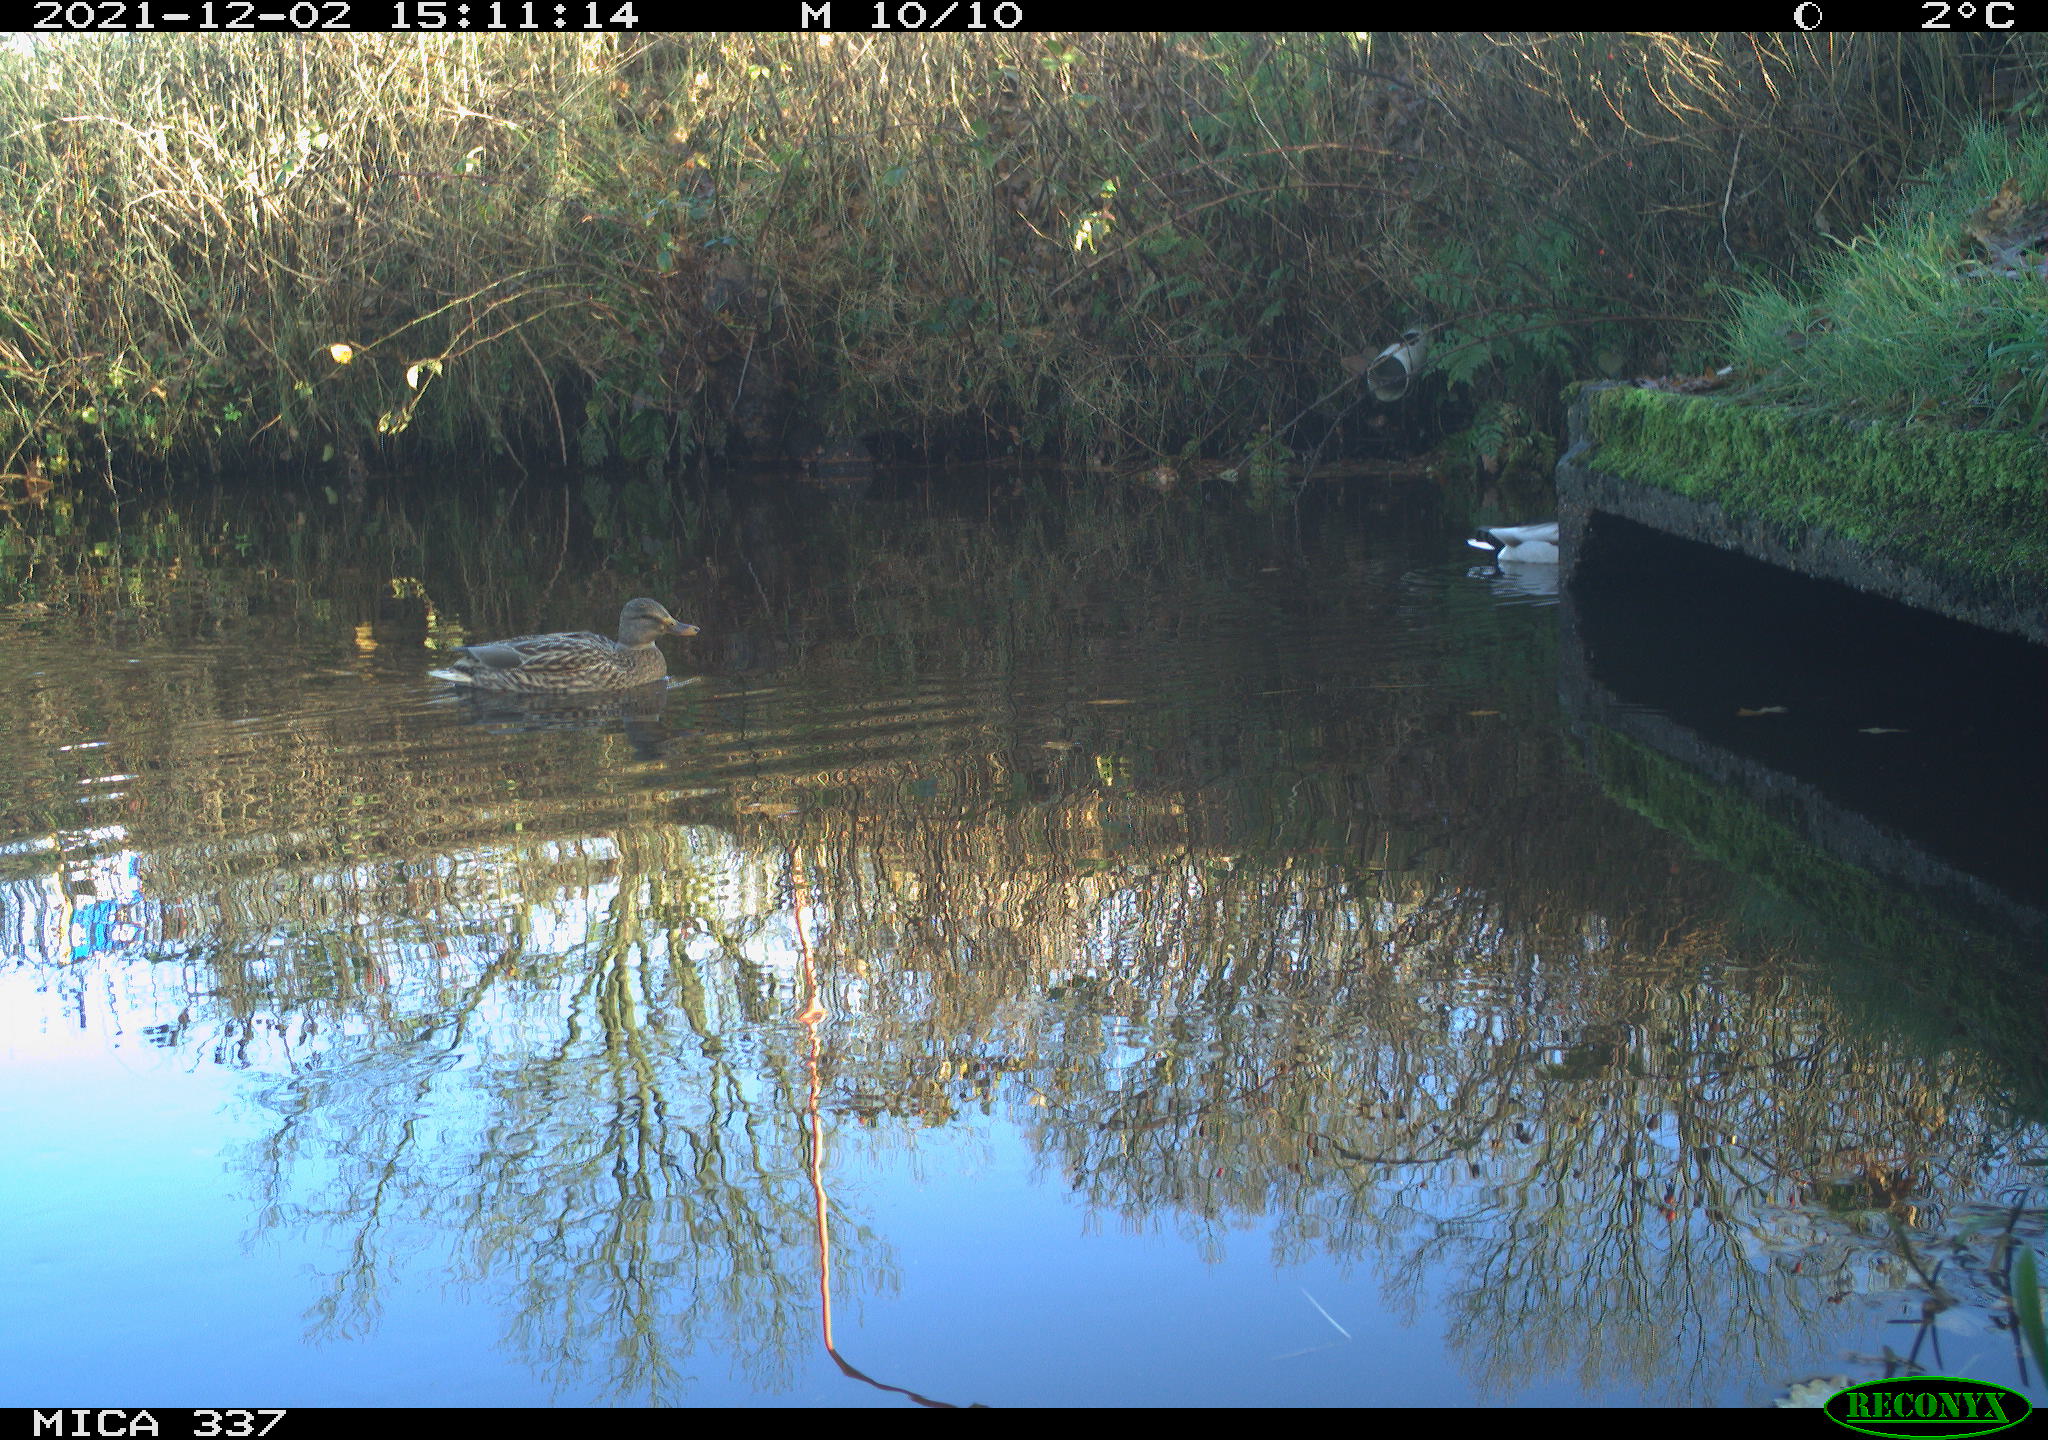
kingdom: Animalia
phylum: Chordata
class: Aves
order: Anseriformes
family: Anatidae
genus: Anas
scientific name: Anas platyrhynchos
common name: Mallard
